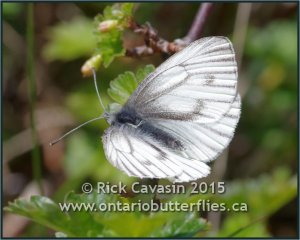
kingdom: Animalia
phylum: Arthropoda
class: Insecta
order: Lepidoptera
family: Pieridae
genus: Pieris
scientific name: Pieris oleracea
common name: Mustard White
